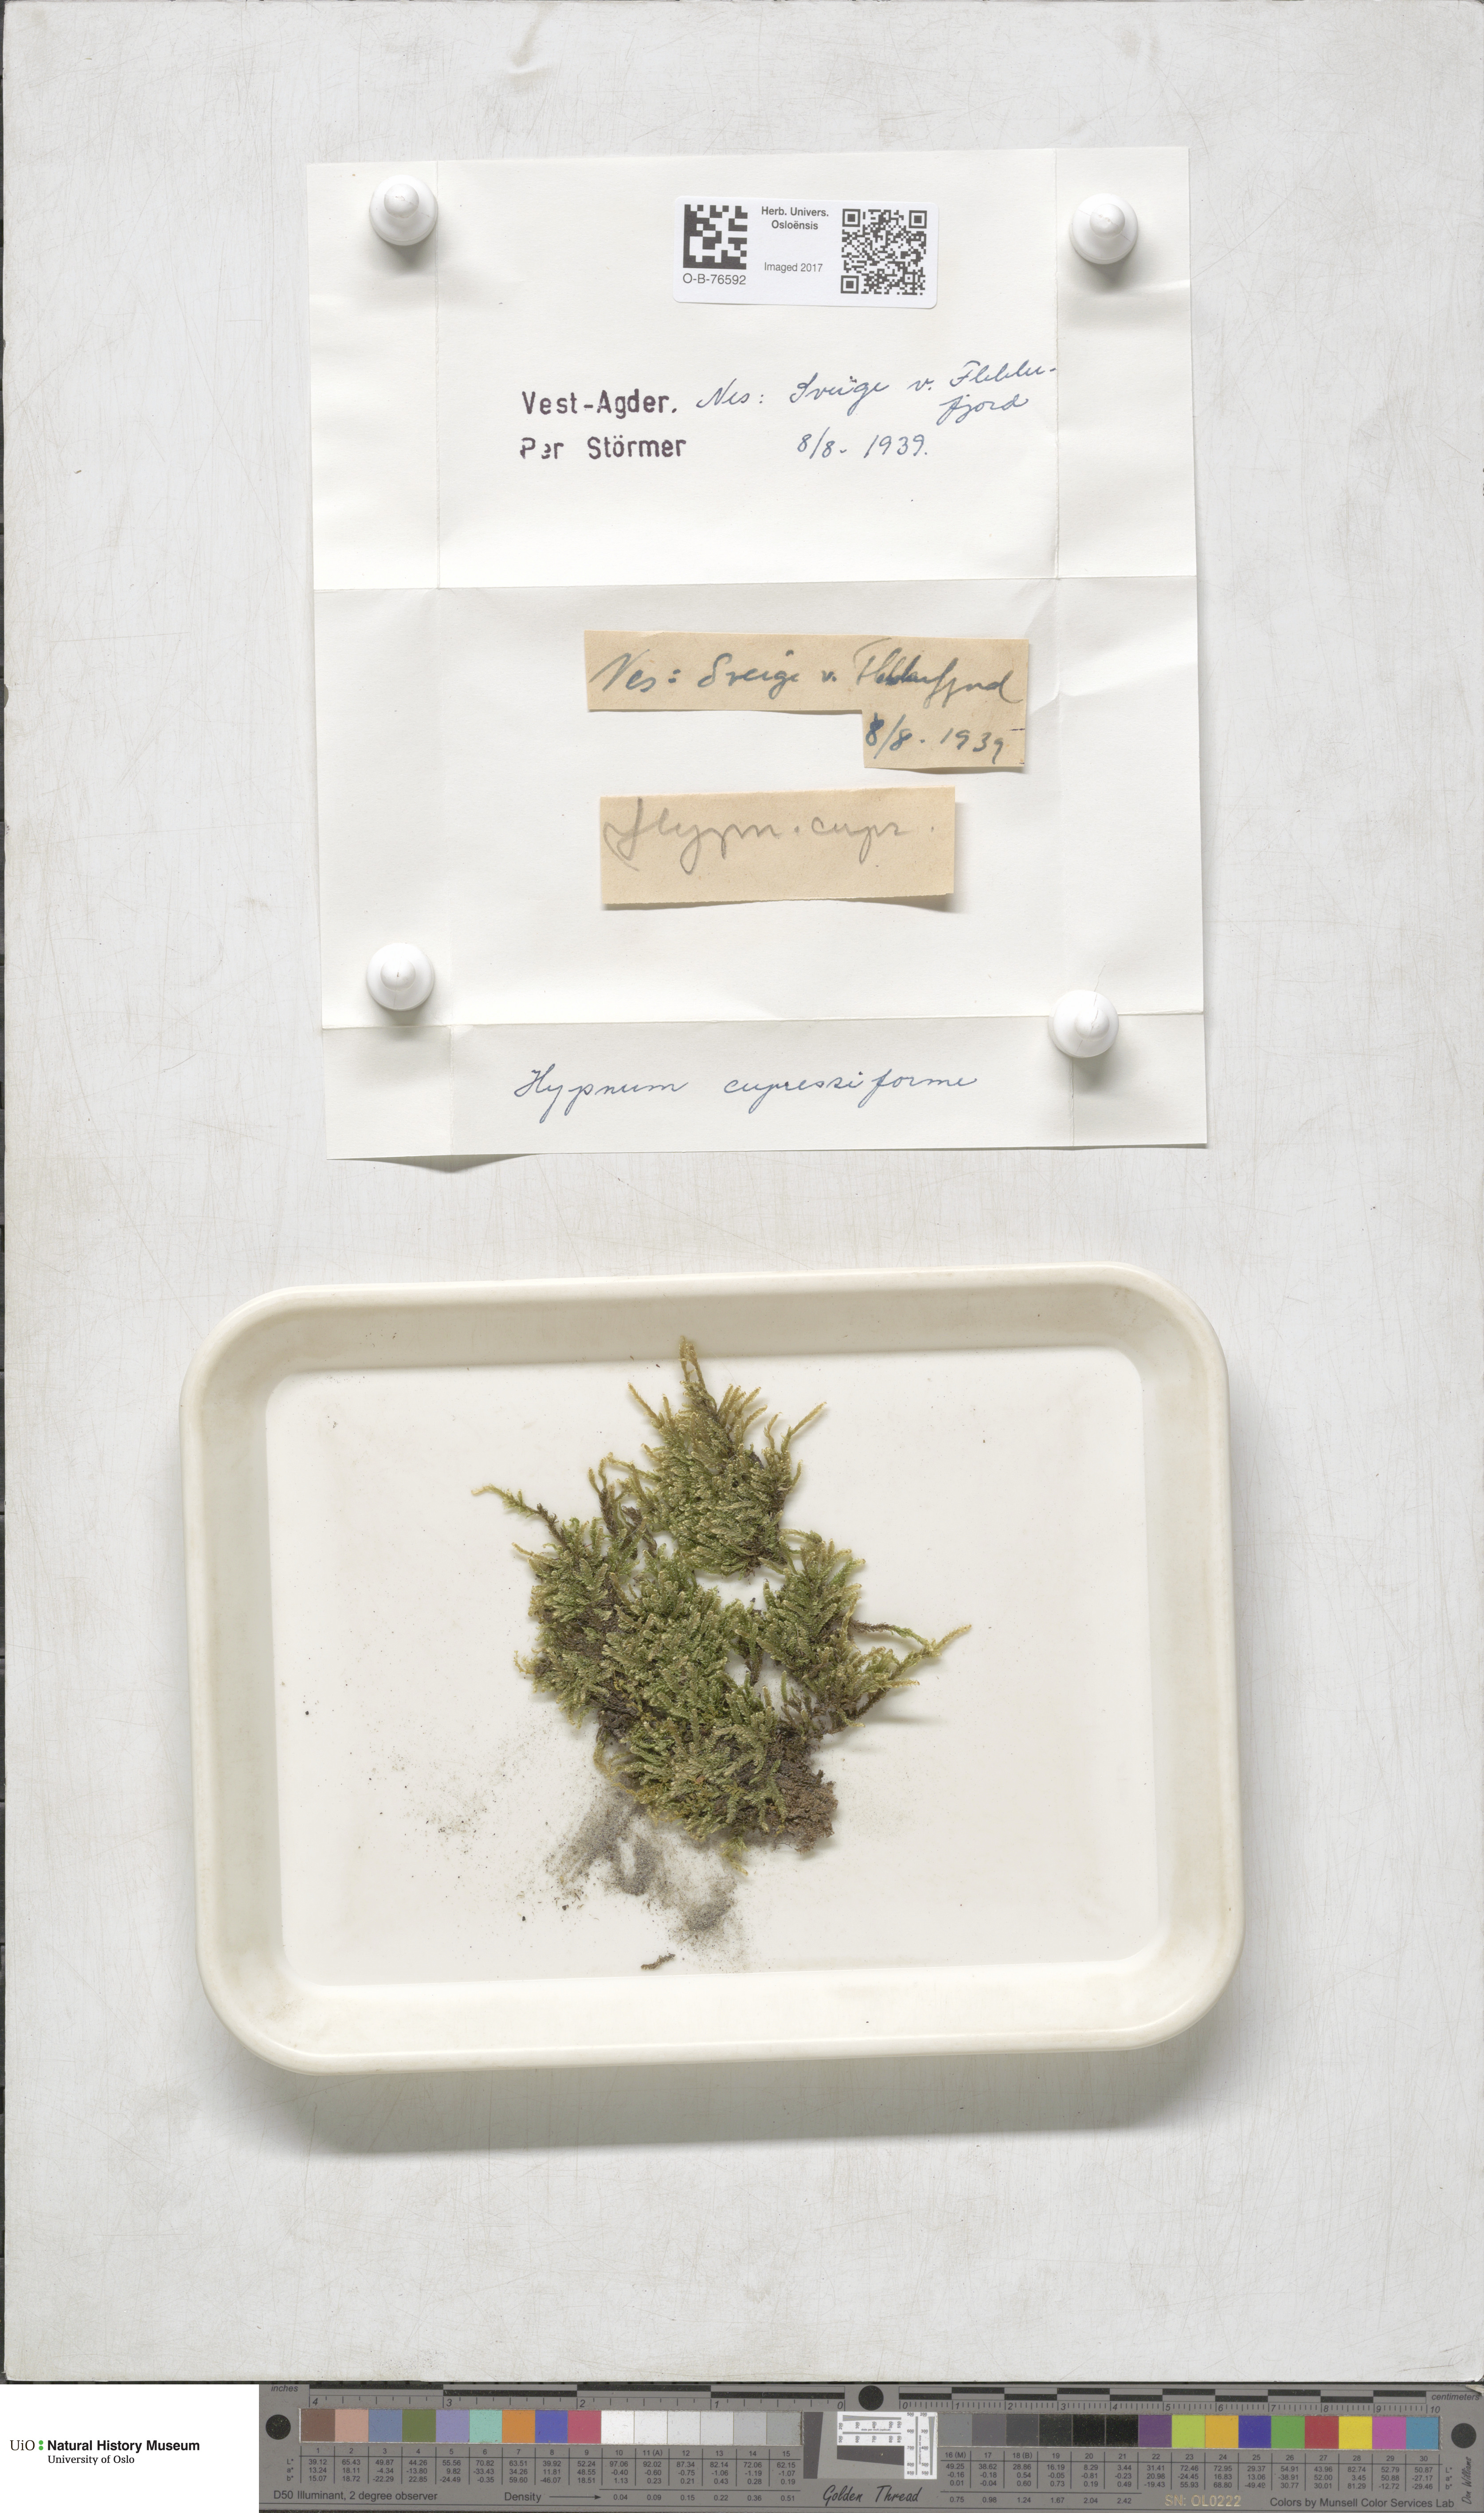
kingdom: Plantae
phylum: Bryophyta
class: Bryopsida
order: Hypnales
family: Hypnaceae
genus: Hypnum
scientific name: Hypnum cupressiforme
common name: Cypress-leaved plait-moss
